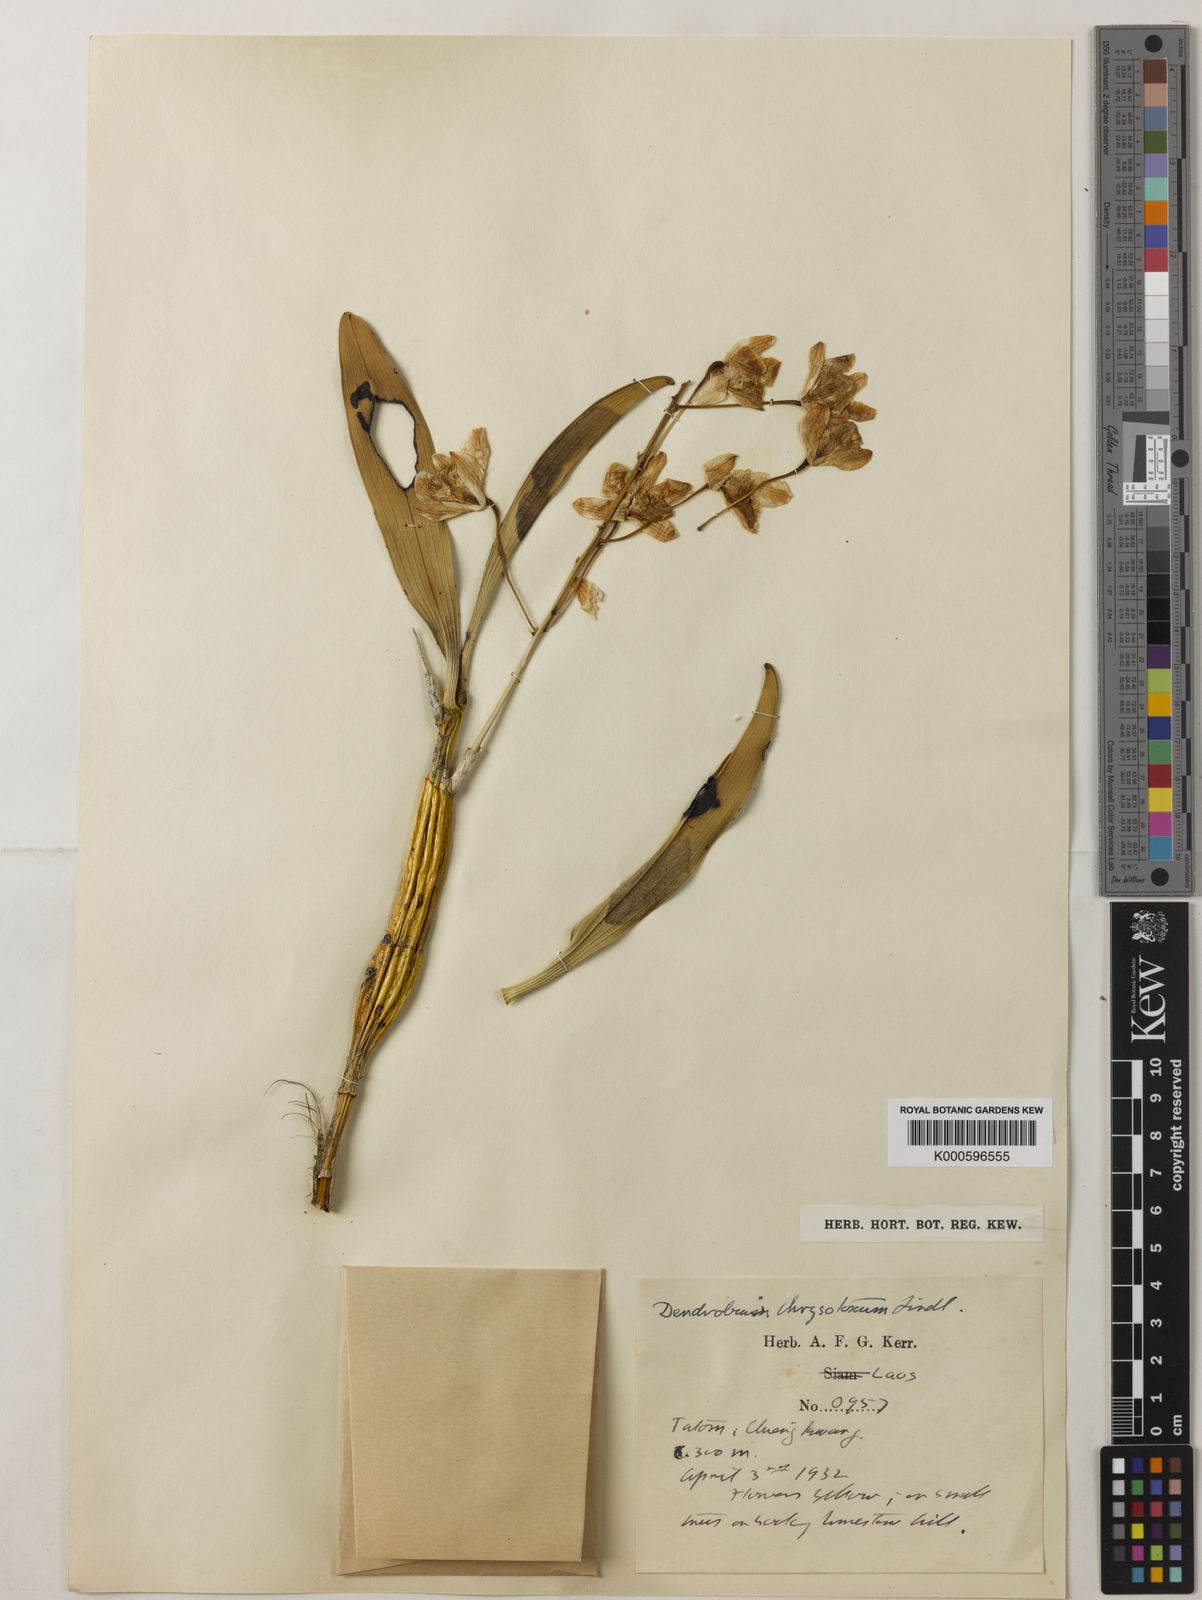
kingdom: Plantae
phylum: Tracheophyta
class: Liliopsida
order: Asparagales
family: Orchidaceae
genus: Dendrobium
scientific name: Dendrobium chrysotoxum
